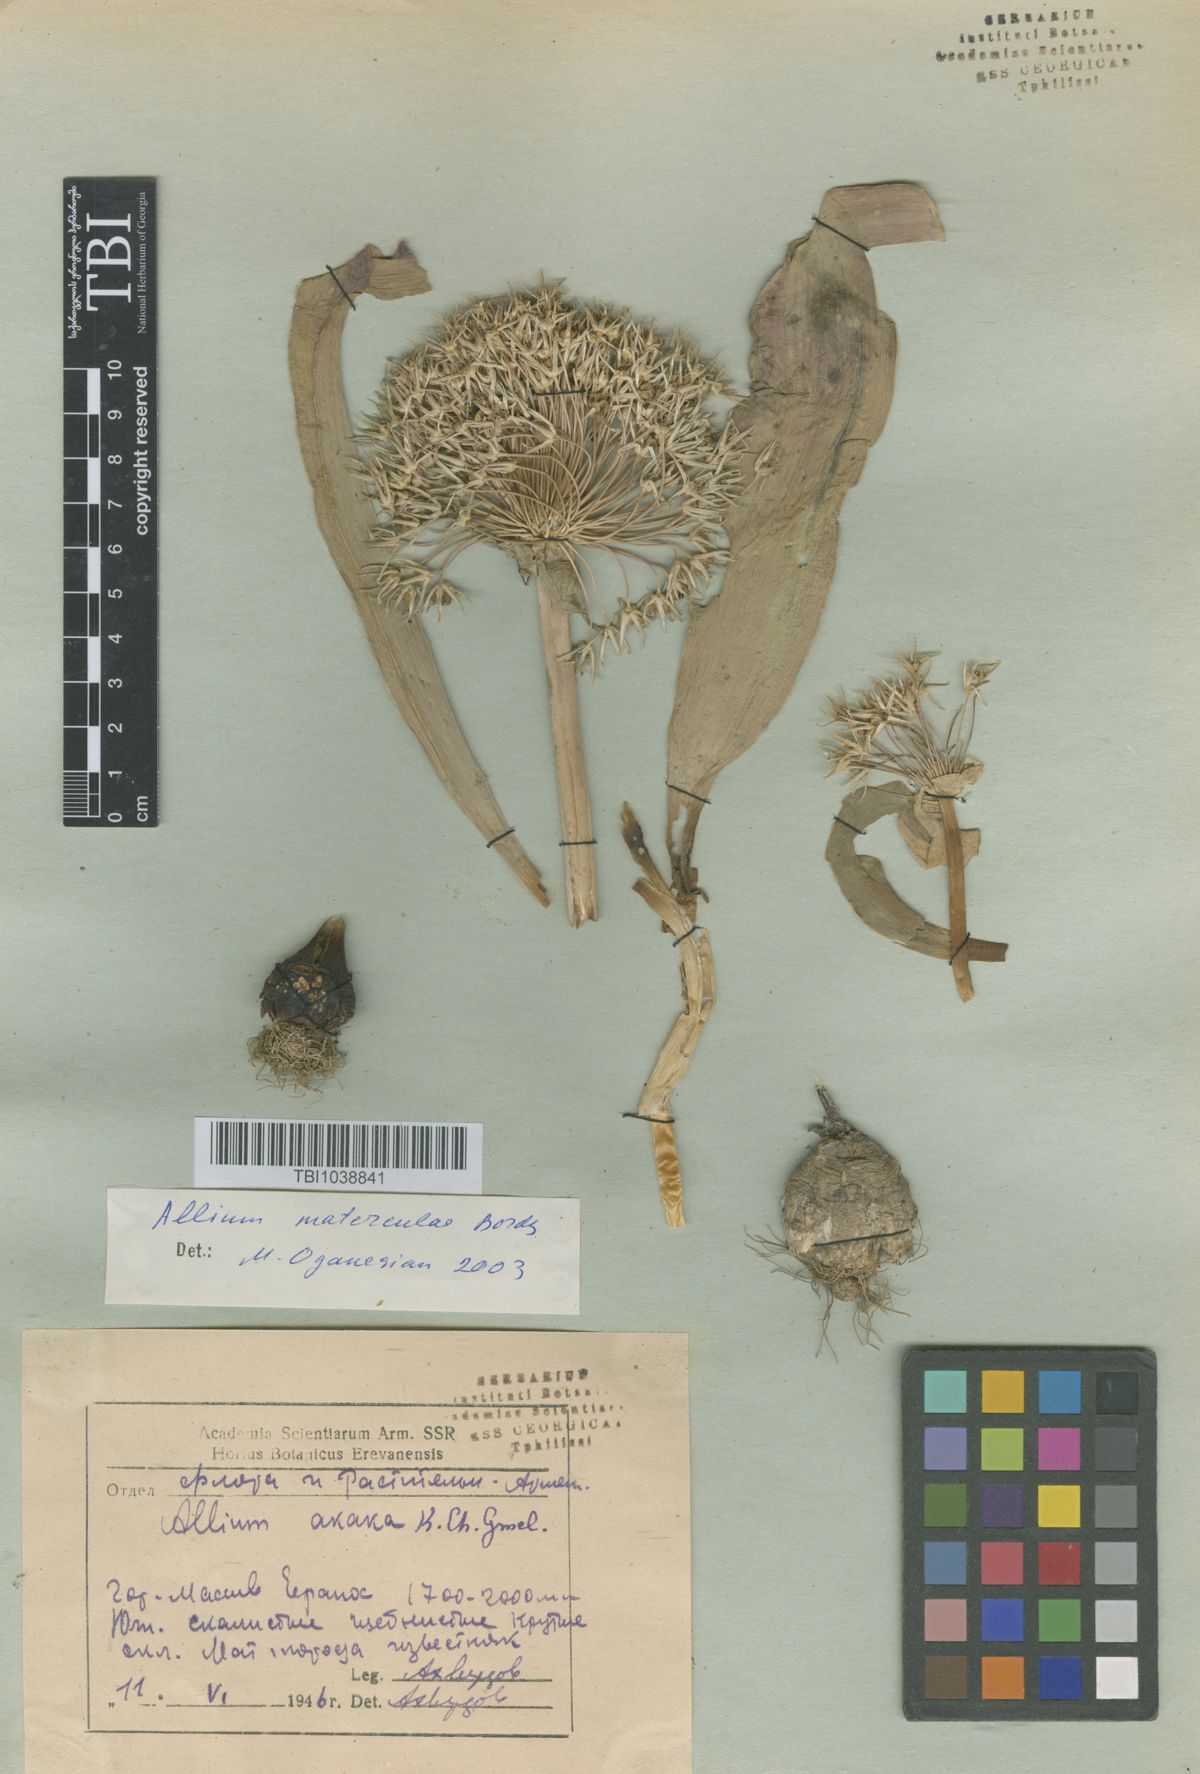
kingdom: Plantae
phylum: Tracheophyta
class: Liliopsida
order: Asparagales
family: Amaryllidaceae
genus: Allium
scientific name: Allium materculae
